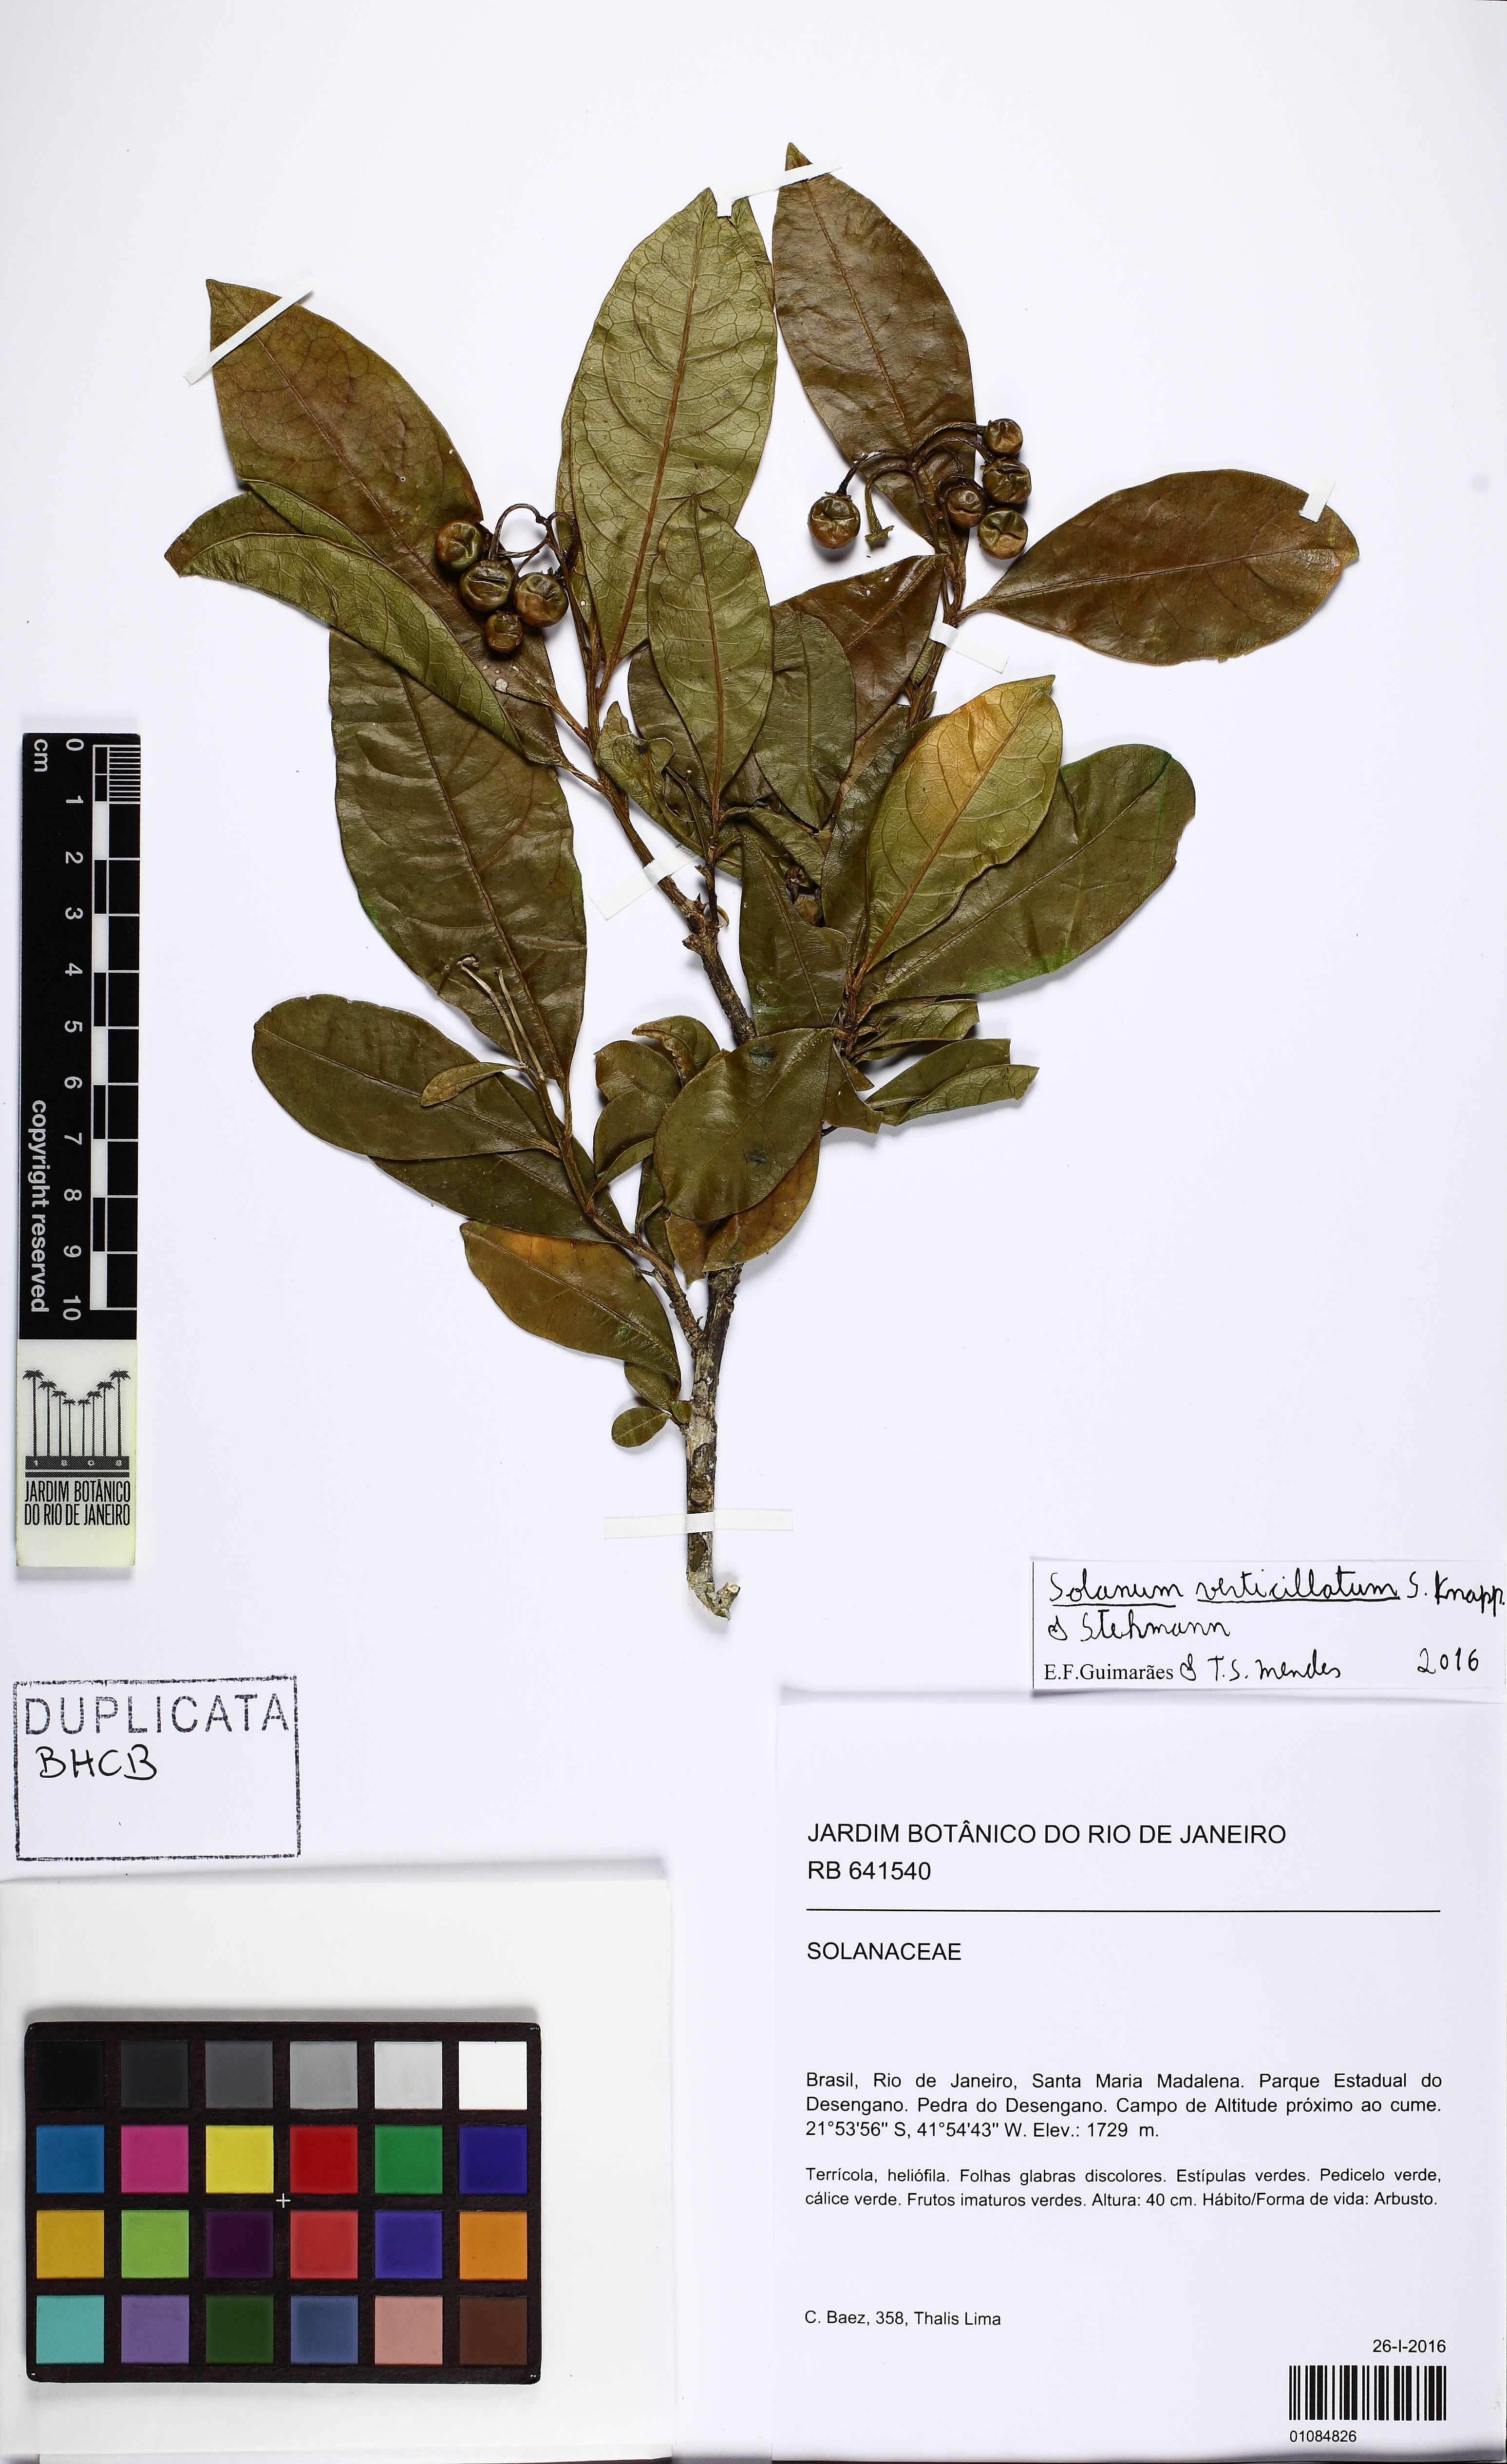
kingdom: Plantae
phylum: Tracheophyta
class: Magnoliopsida
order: Solanales
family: Solanaceae
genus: Solanum
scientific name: Solanum verticillatum
